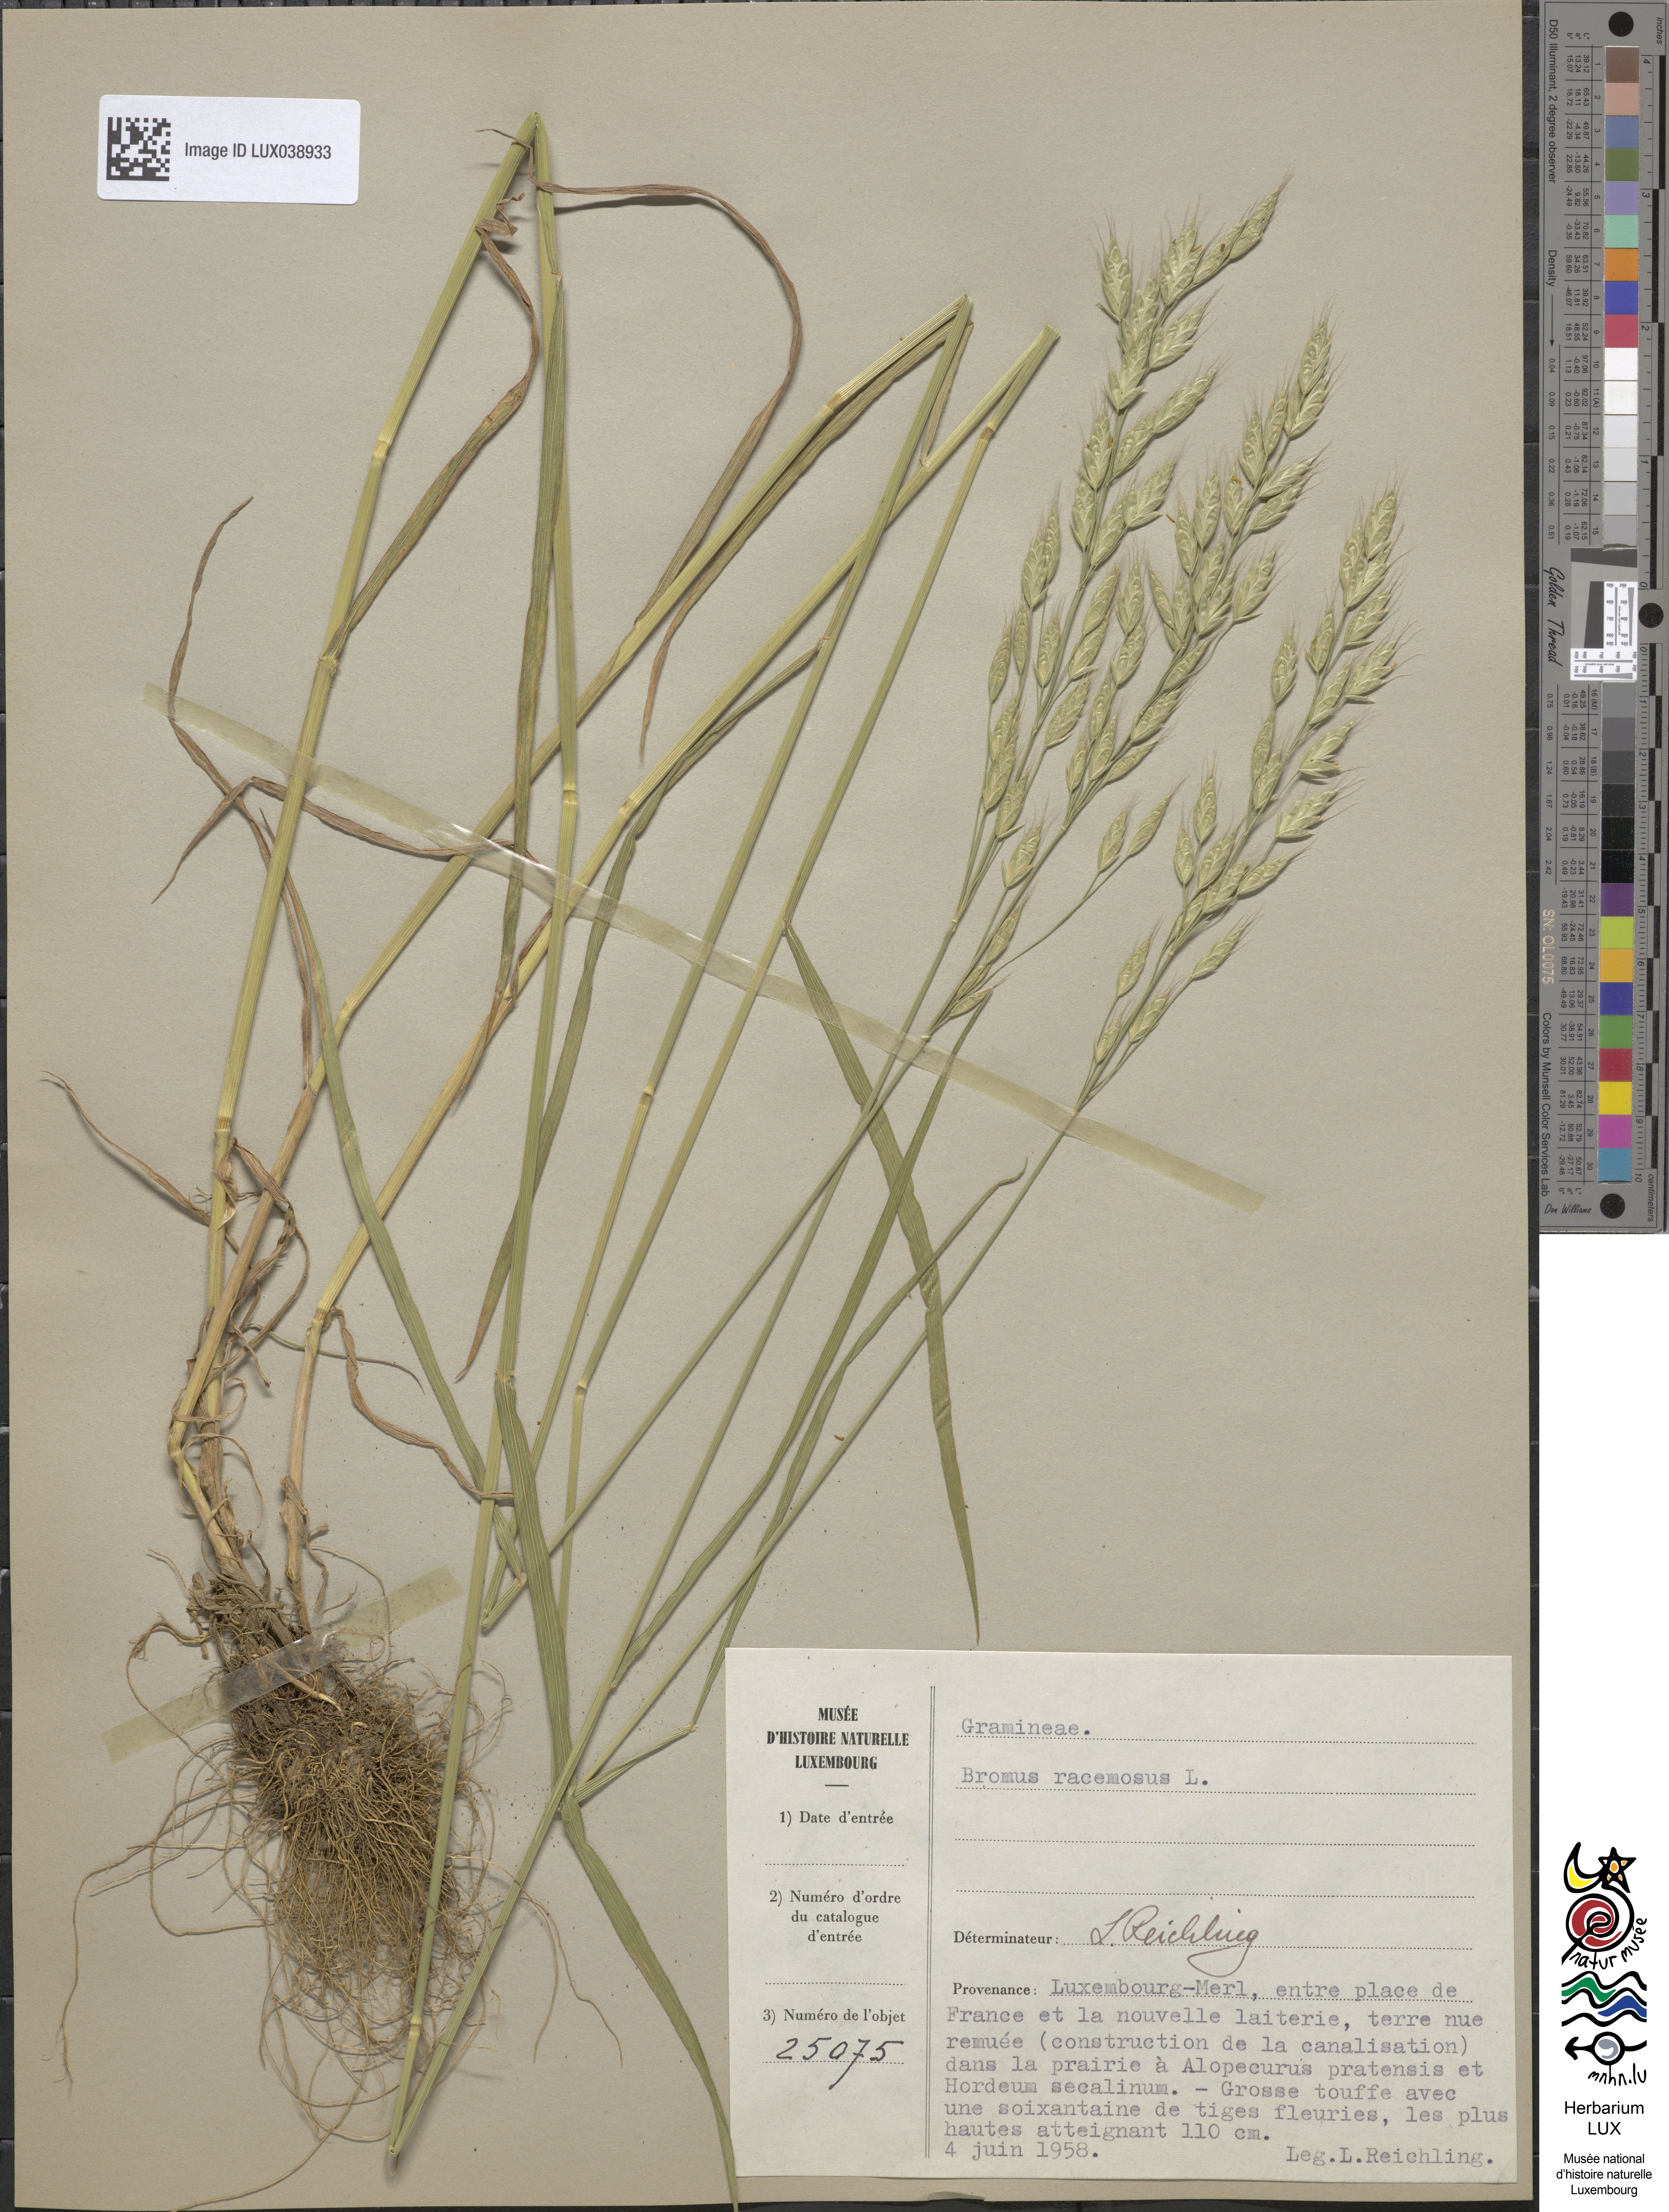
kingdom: Plantae
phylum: Tracheophyta
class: Liliopsida
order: Poales
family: Poaceae
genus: Bromus
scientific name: Bromus racemosus
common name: Bald brome
